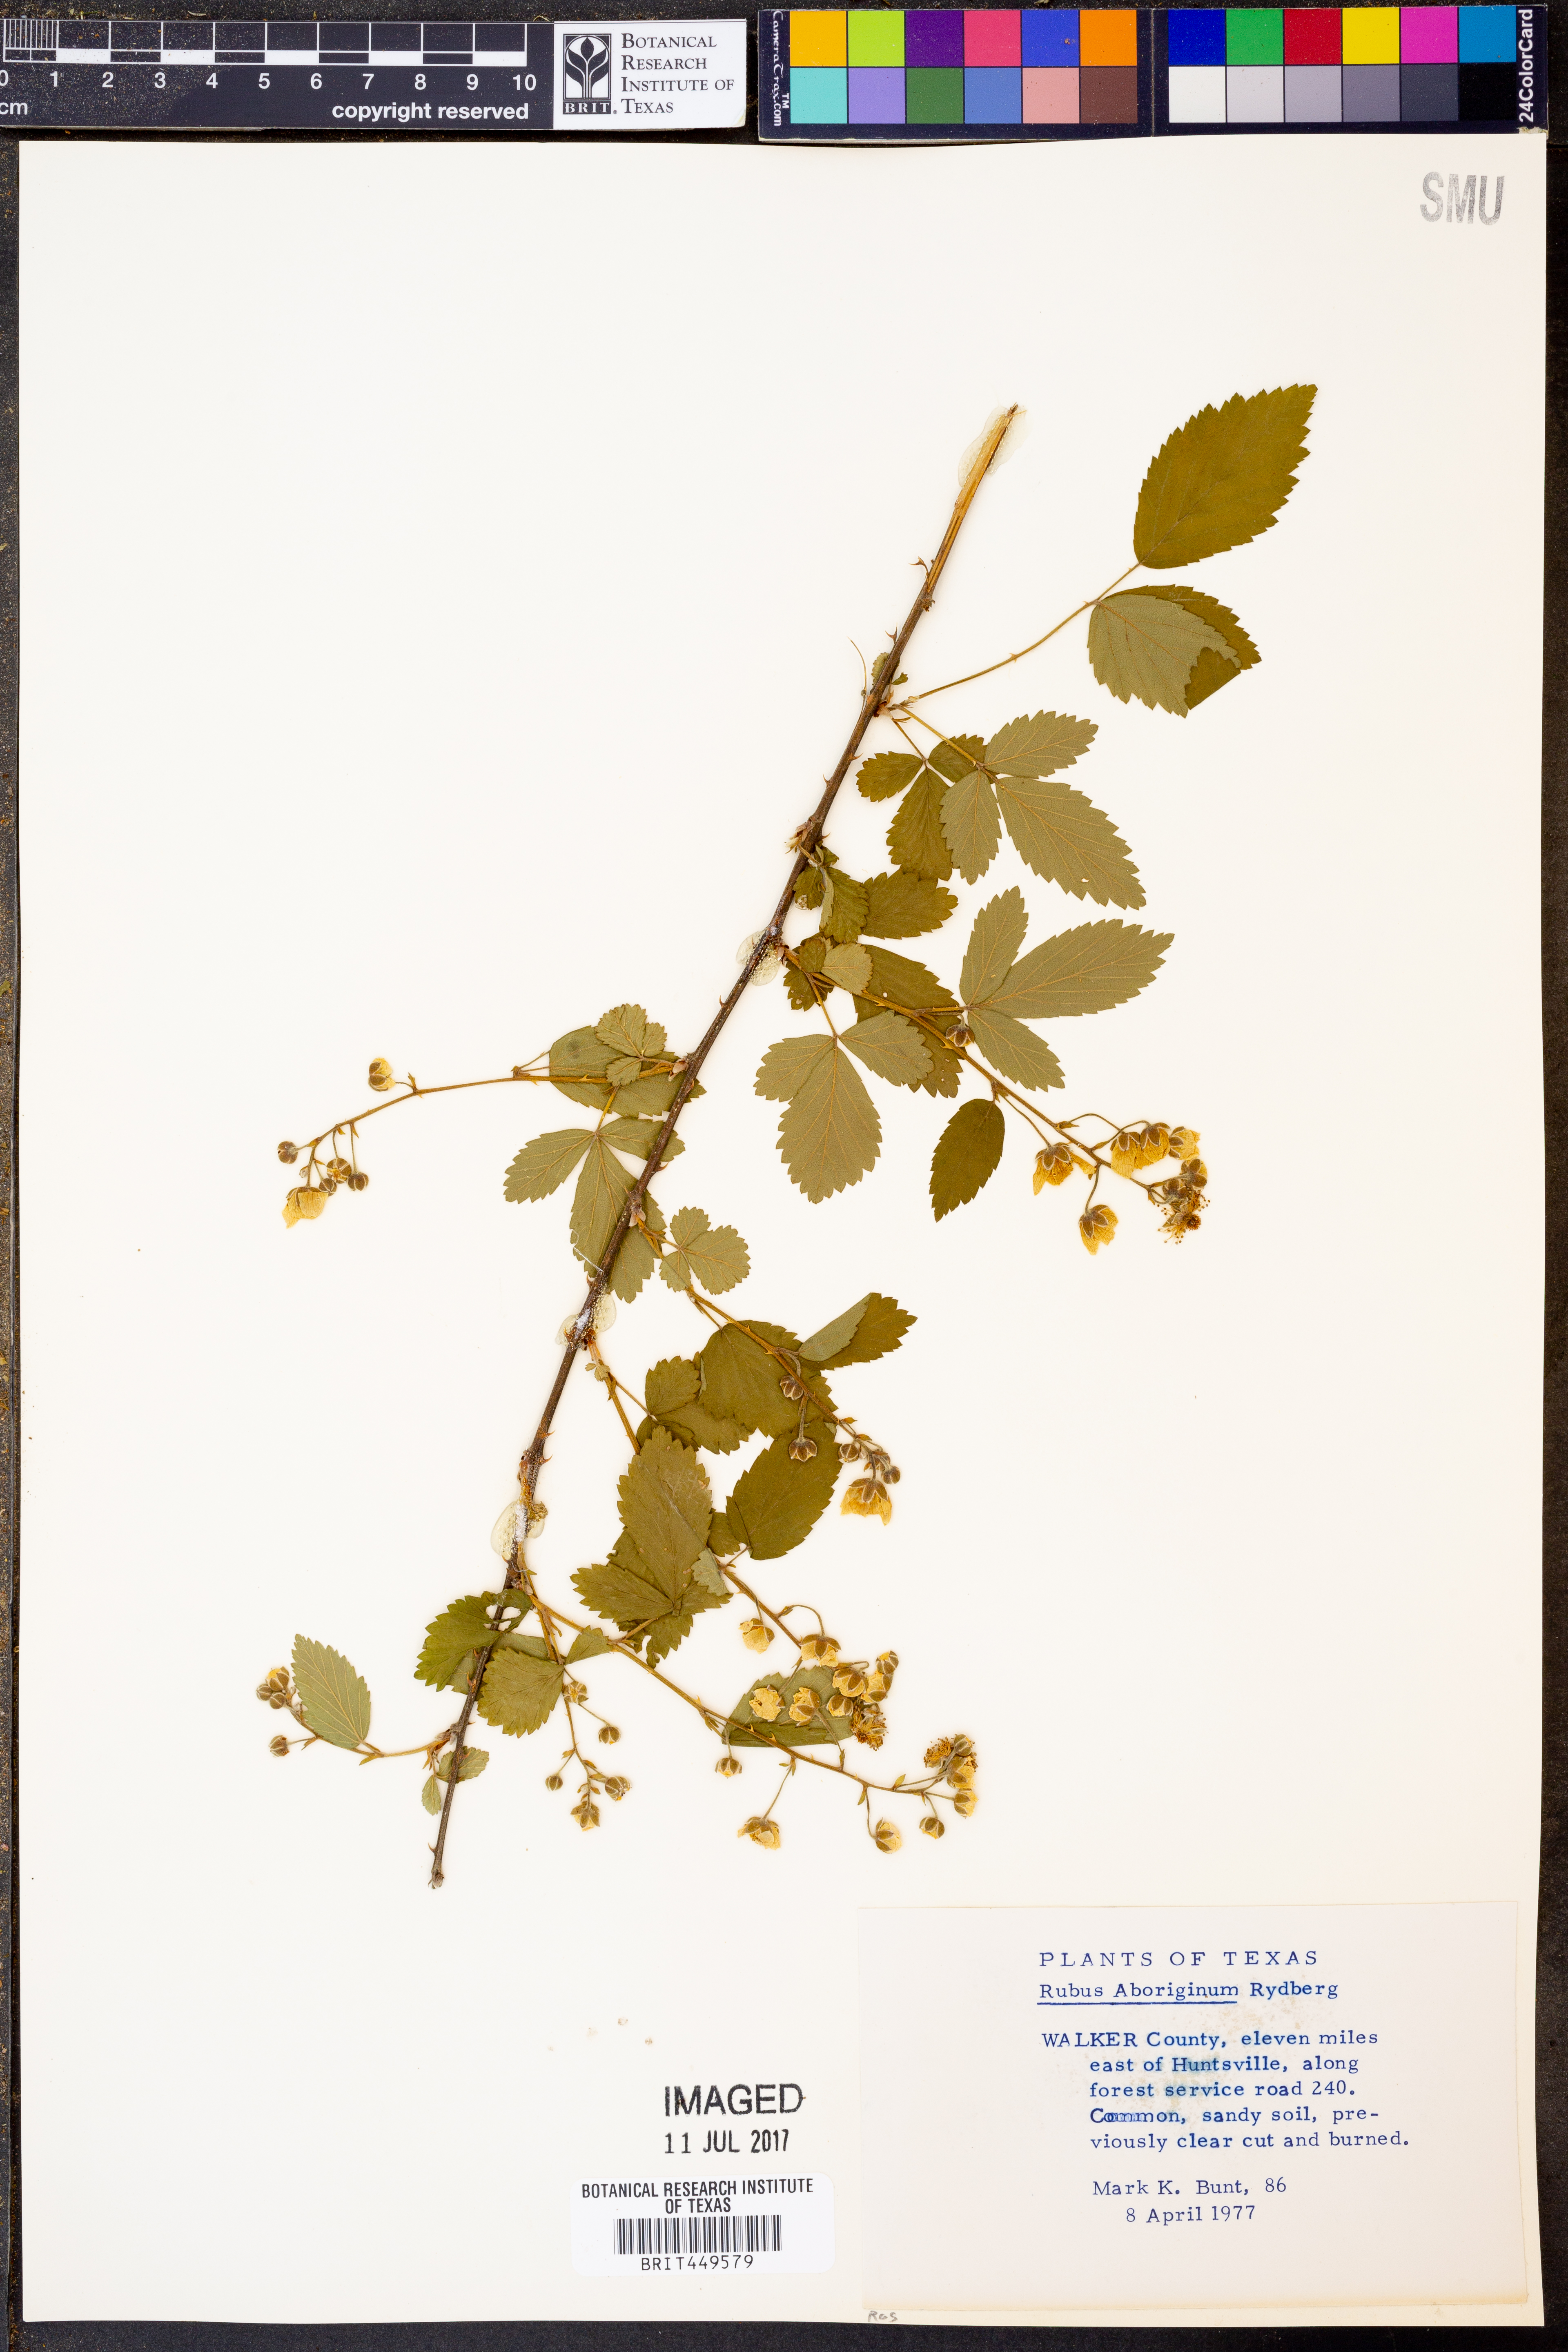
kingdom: Plantae
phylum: Tracheophyta
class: Magnoliopsida
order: Rosales
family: Rosaceae
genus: Rubus
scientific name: Rubus aboriginum
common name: Mayes dewberry
